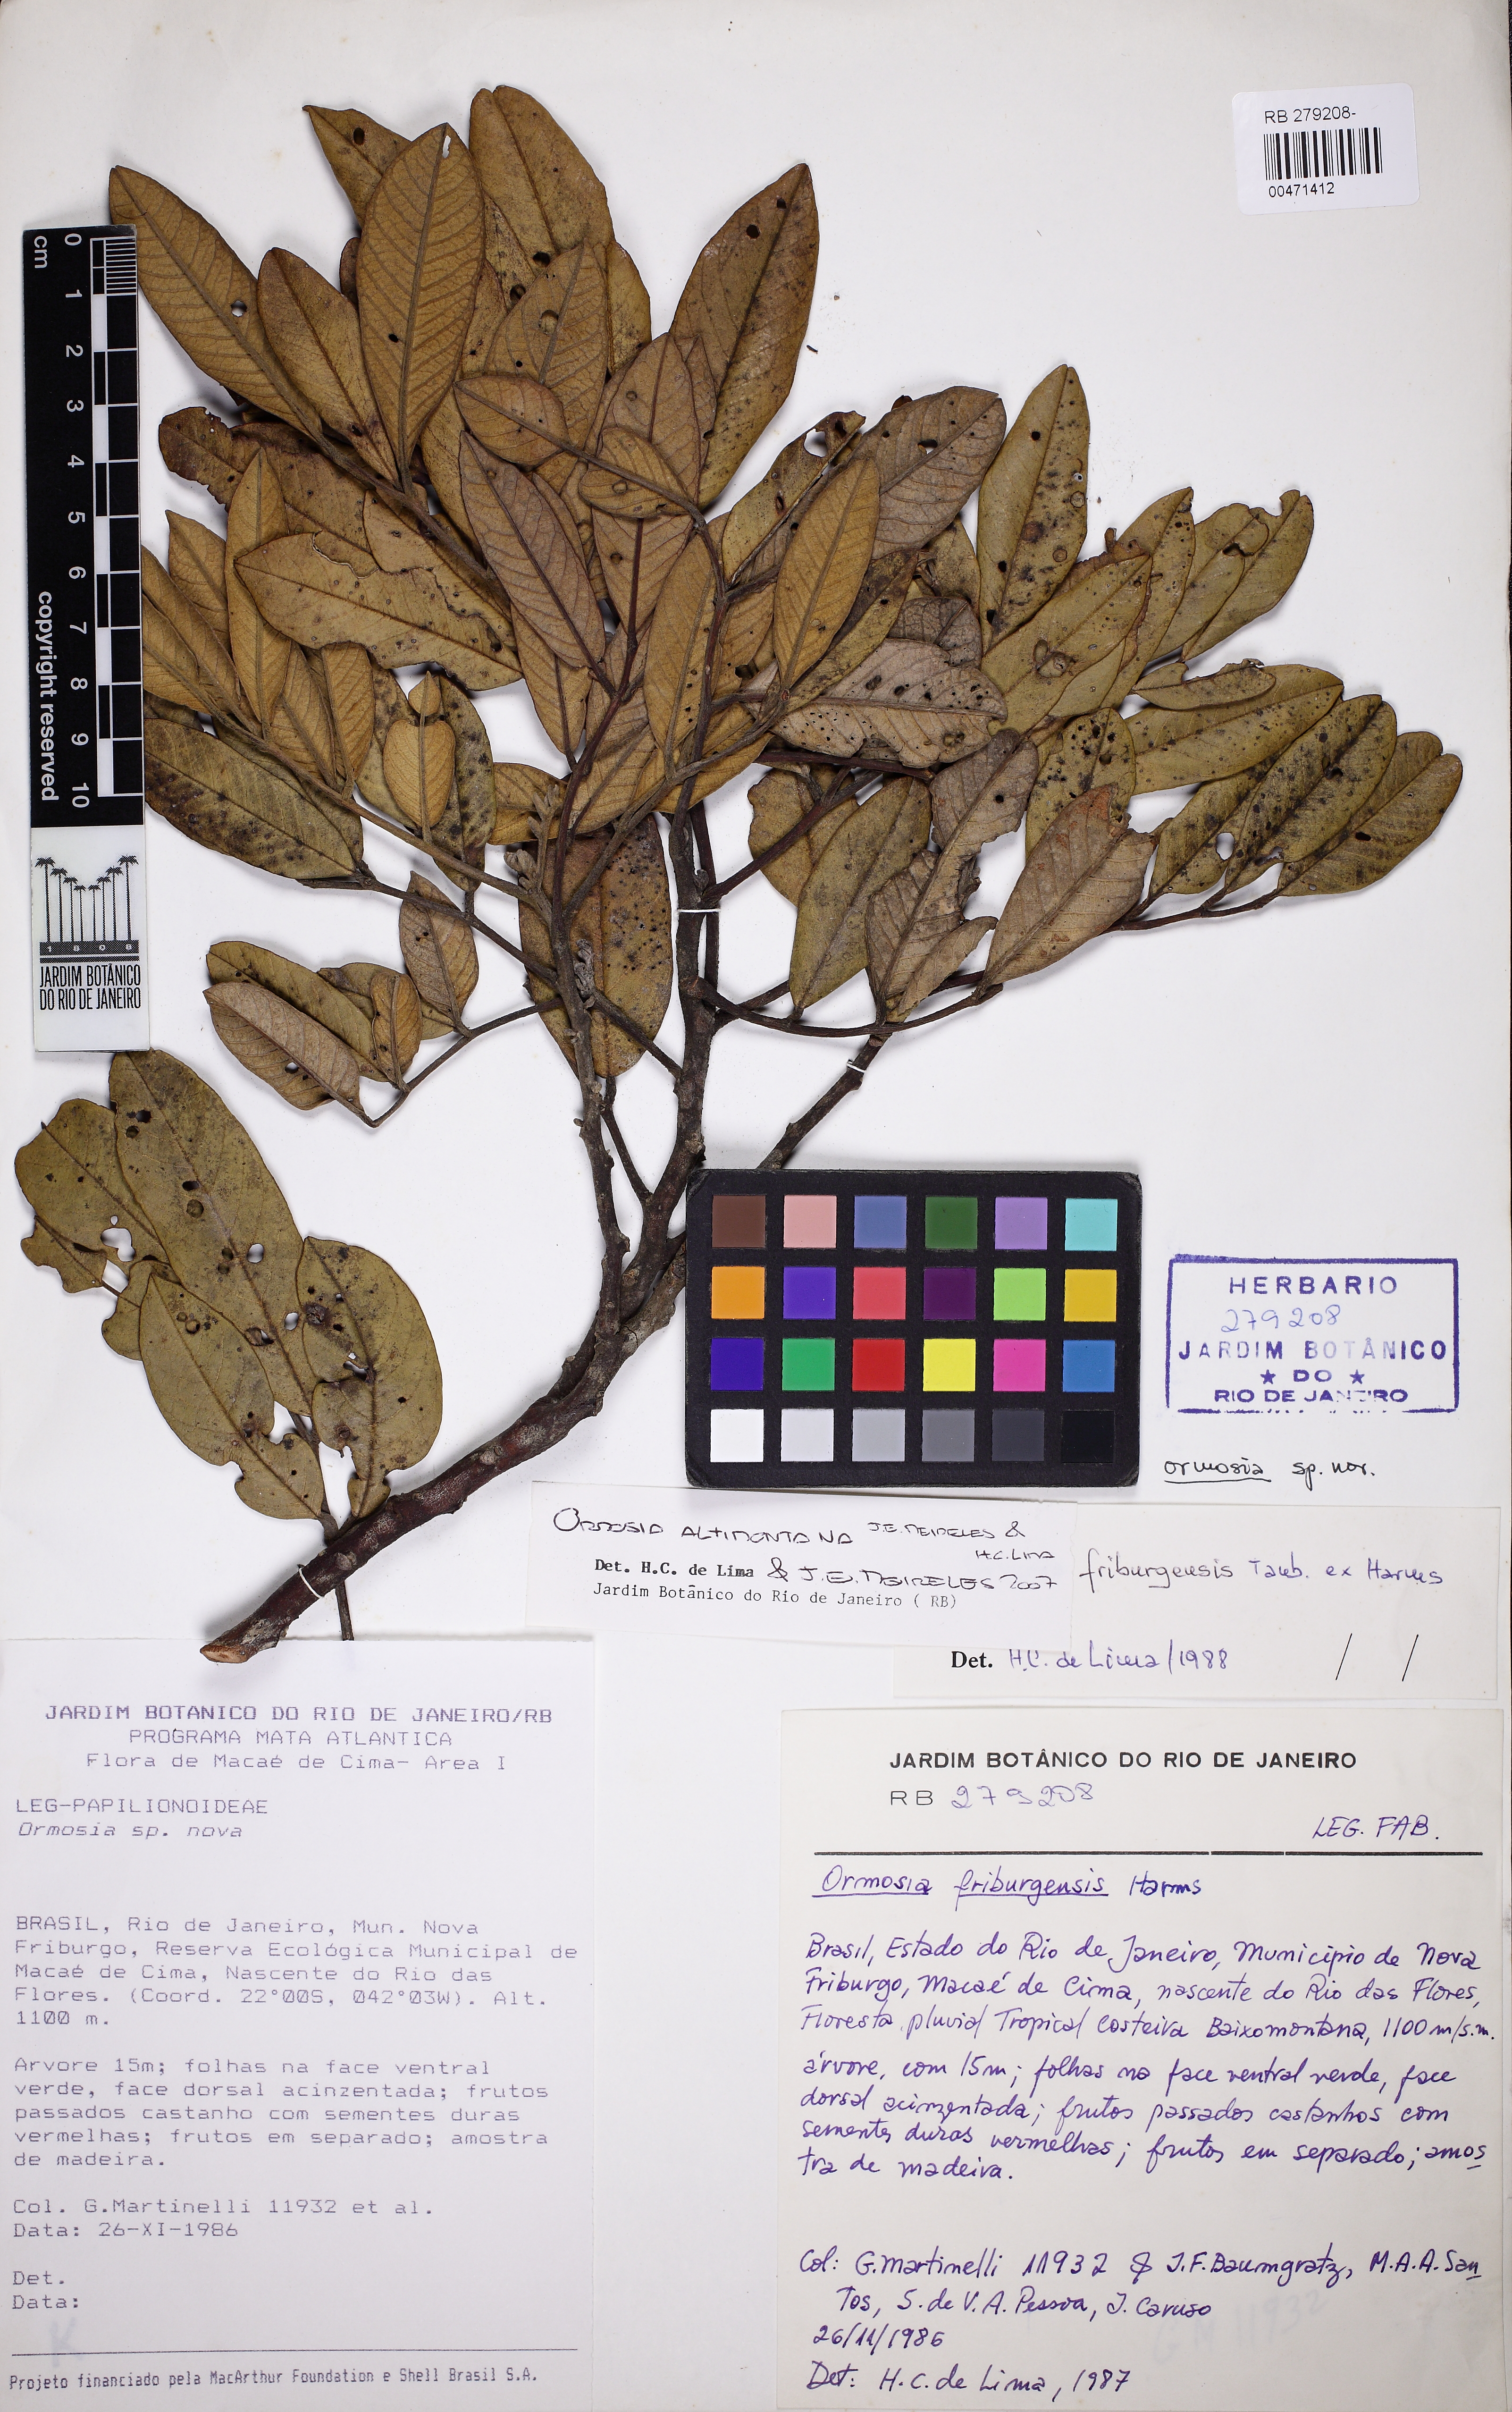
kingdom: Plantae
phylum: Tracheophyta
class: Magnoliopsida
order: Fabales
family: Fabaceae
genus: Ormosia
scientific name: Ormosia altimontana
